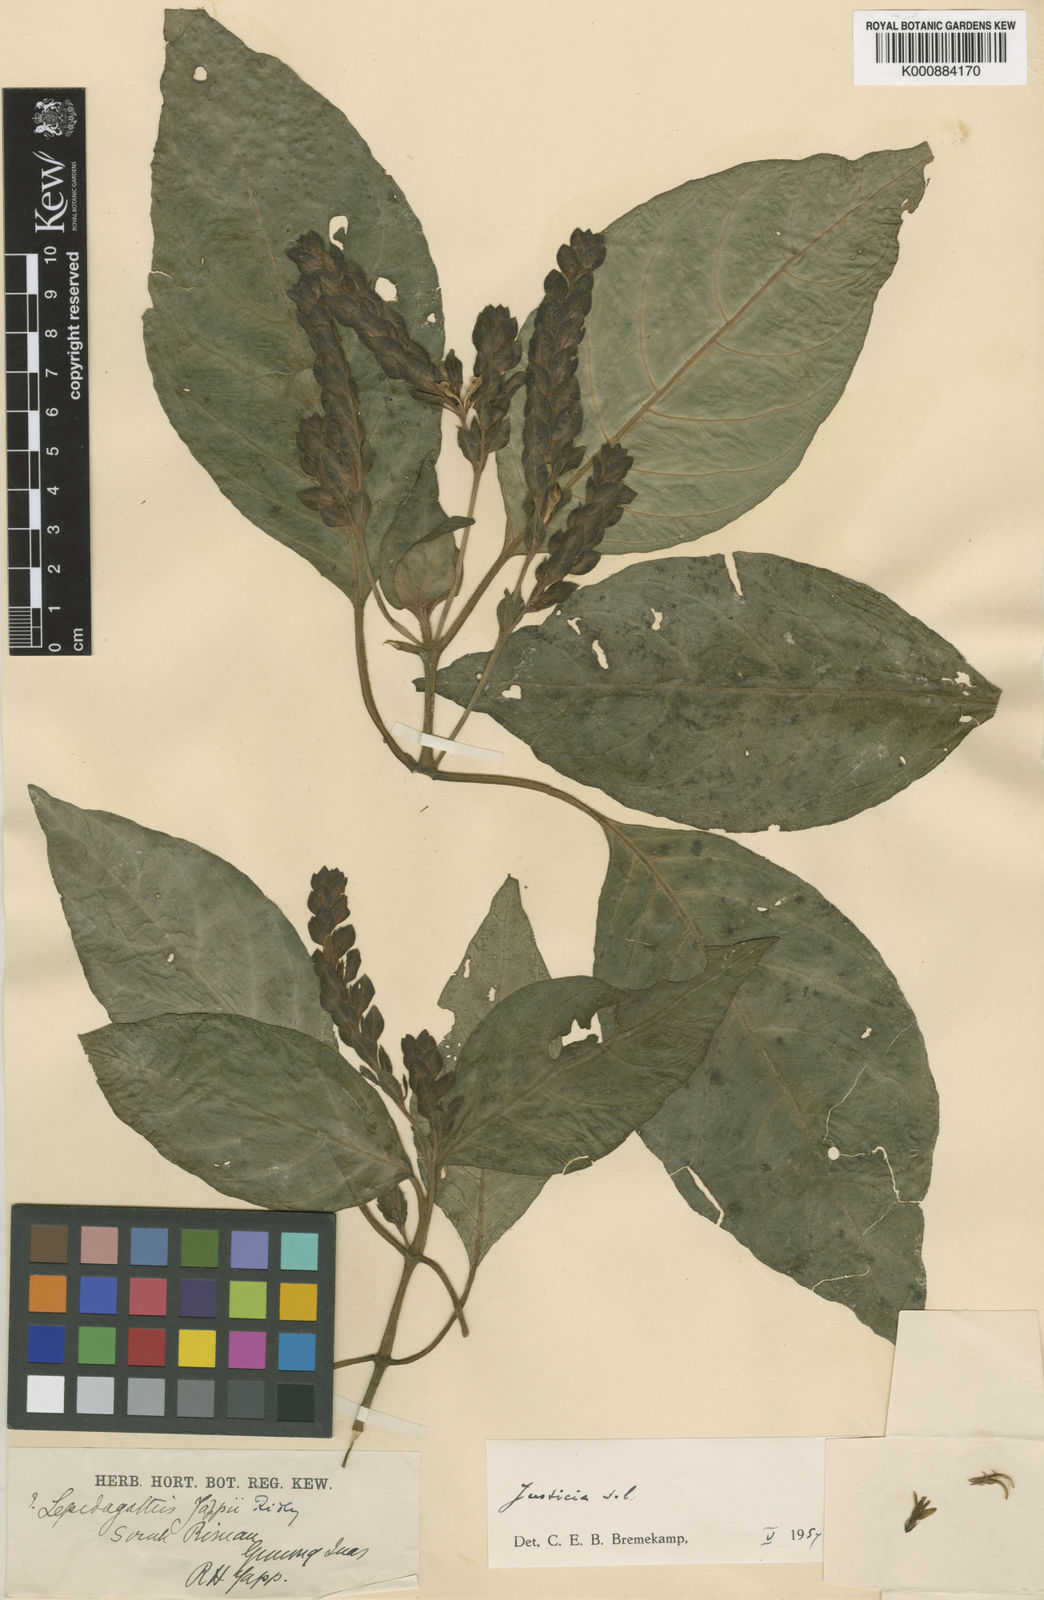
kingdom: Plantae
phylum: Tracheophyta
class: Magnoliopsida
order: Lamiales
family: Acanthaceae
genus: Justicia
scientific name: Justicia
